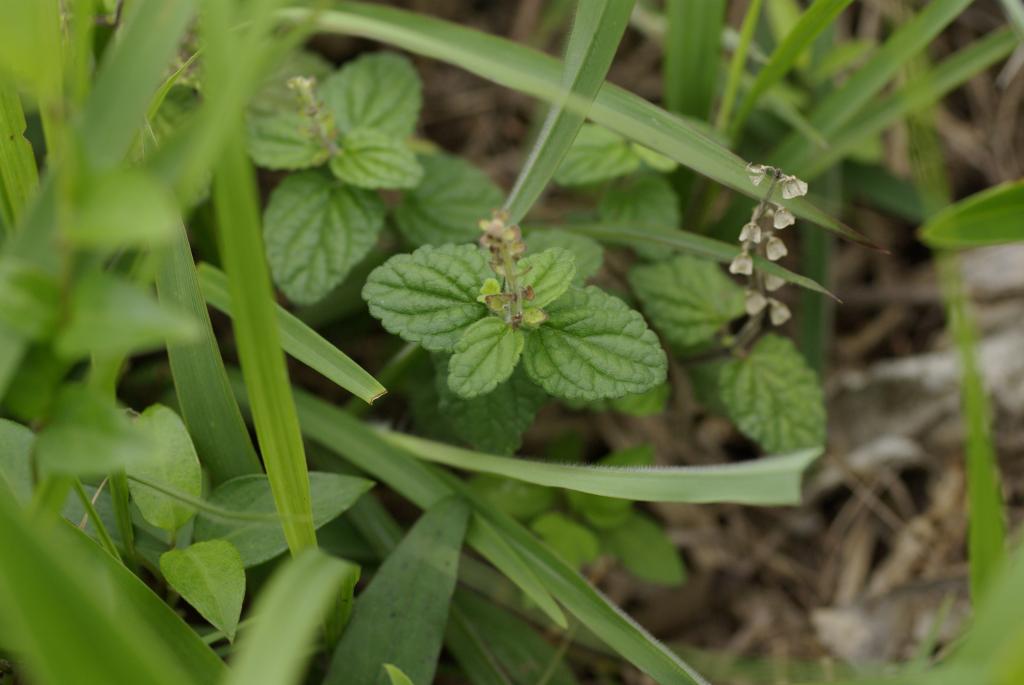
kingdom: Plantae
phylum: Tracheophyta
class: Magnoliopsida
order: Lamiales
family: Lamiaceae
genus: Scutellaria
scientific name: Scutellaria indica
